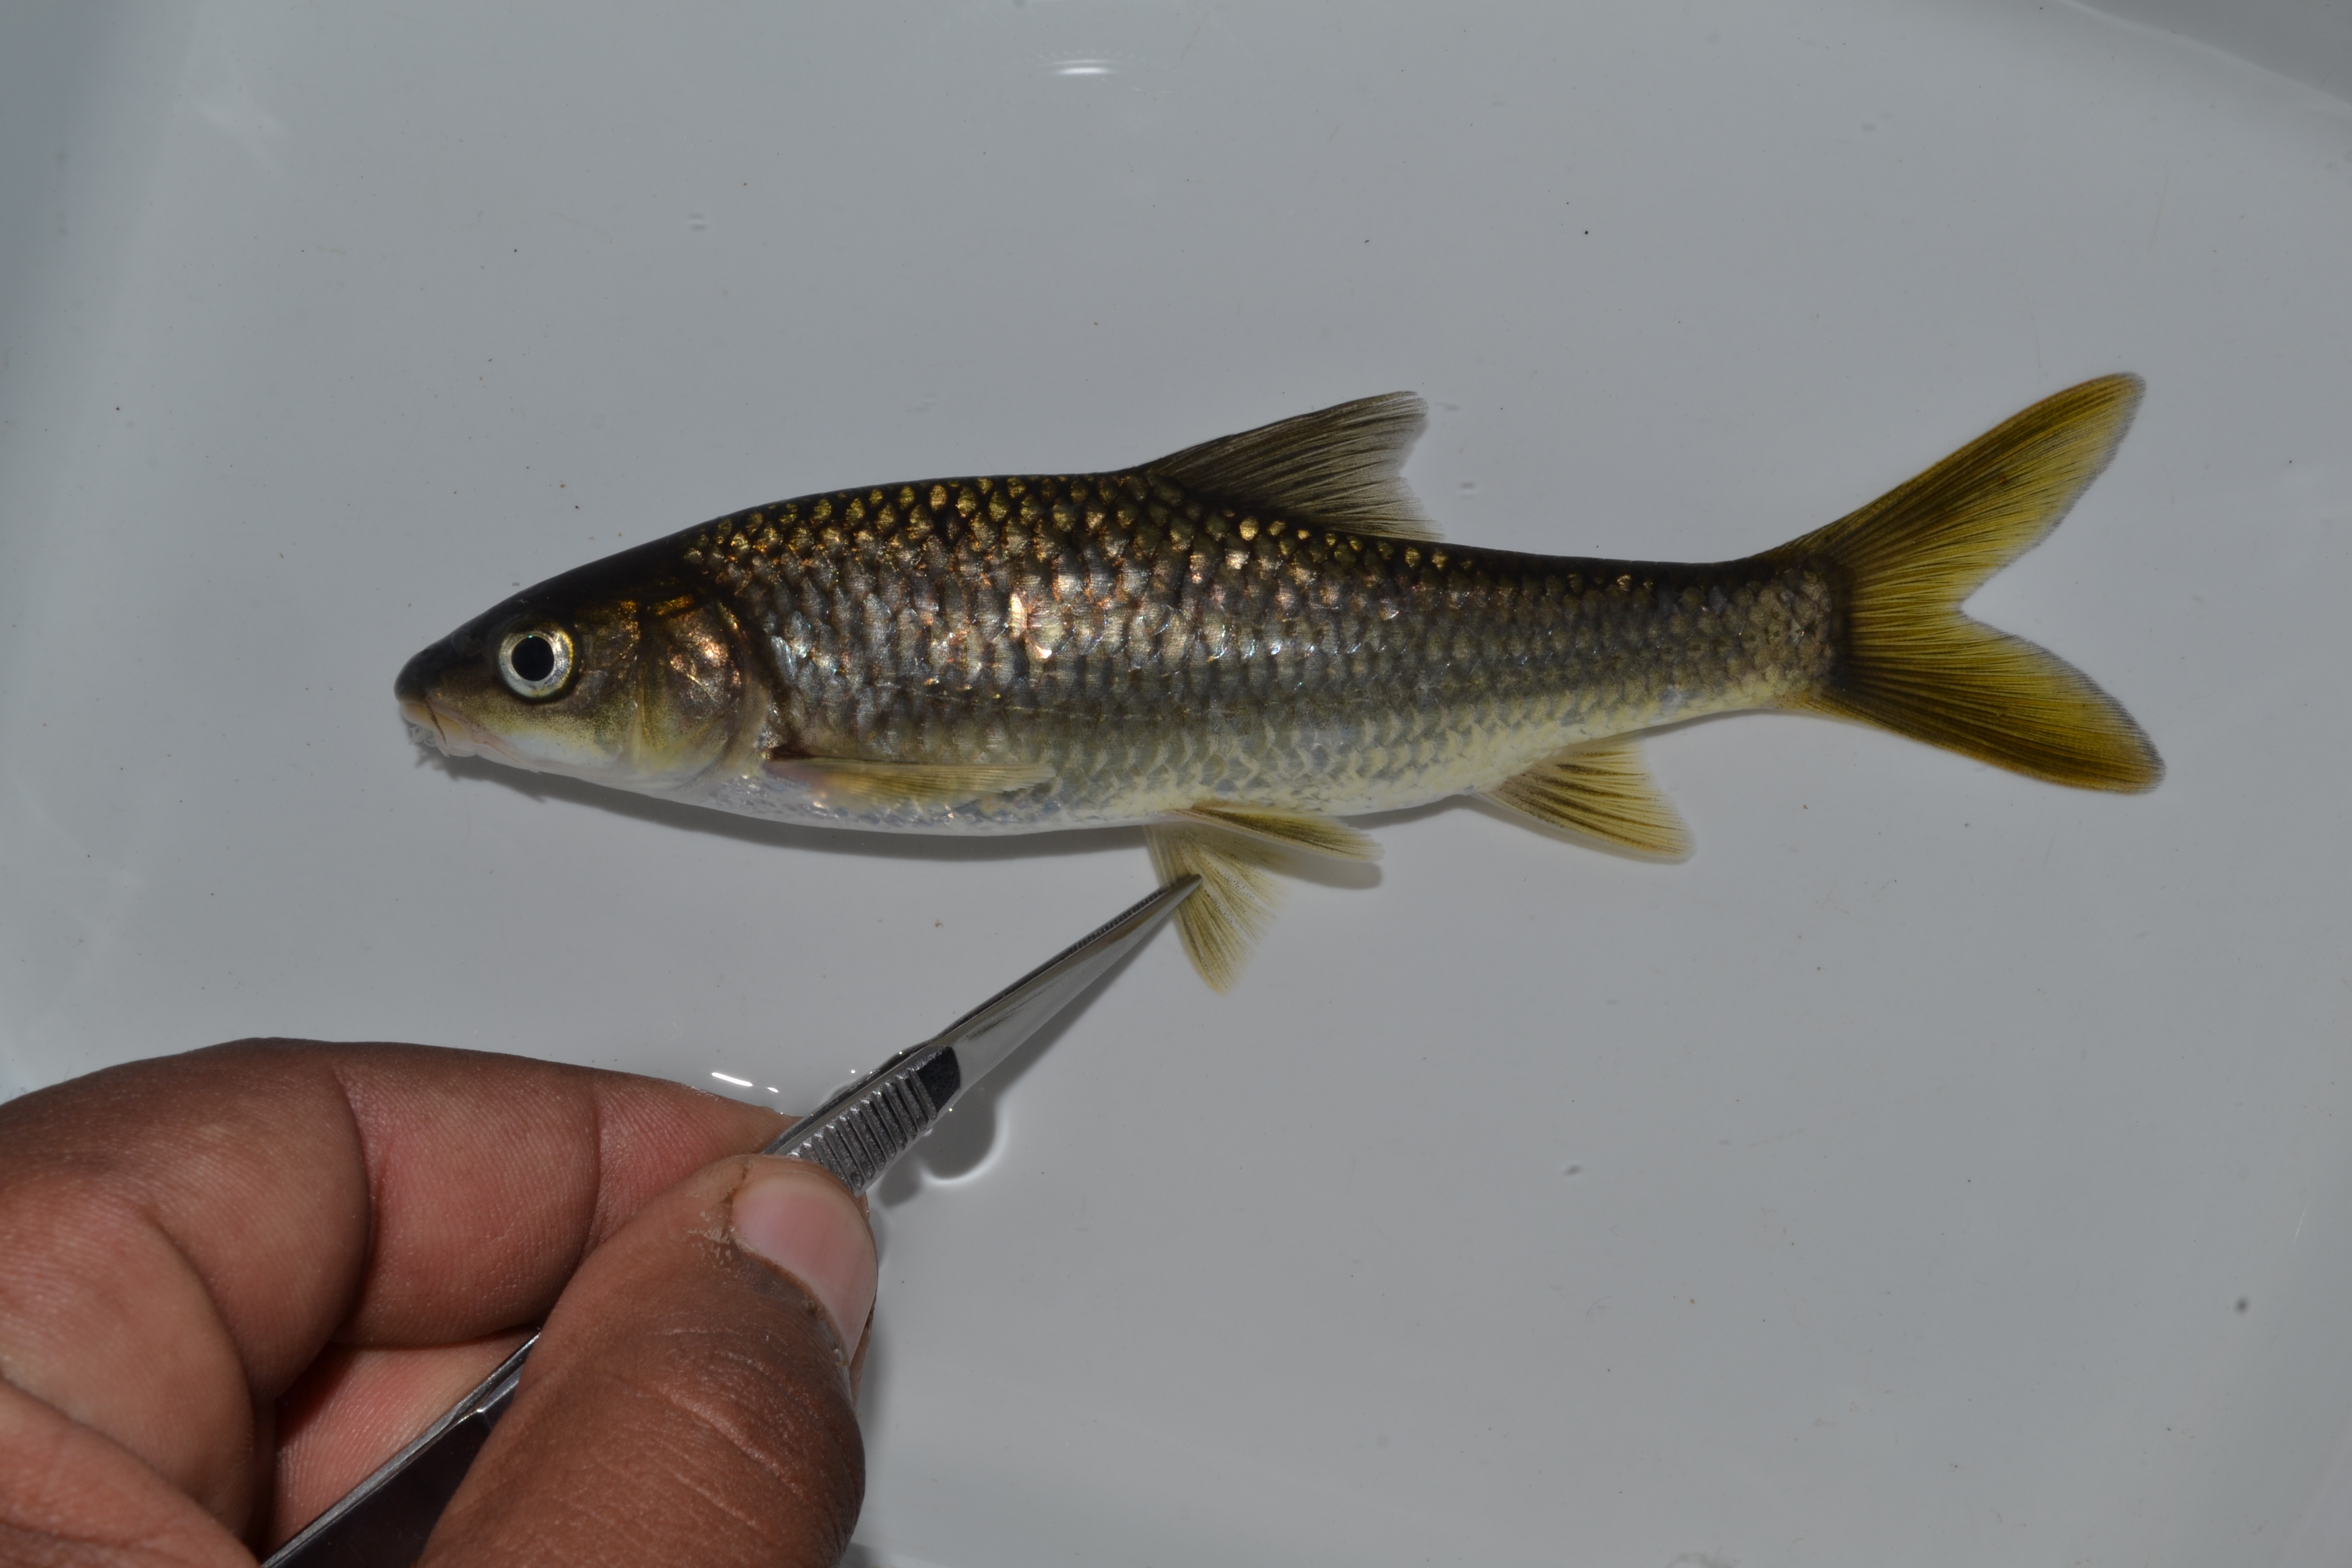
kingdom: Animalia
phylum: Chordata
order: Cypriniformes
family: Cyprinidae
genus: Enteromius
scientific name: Enteromius
